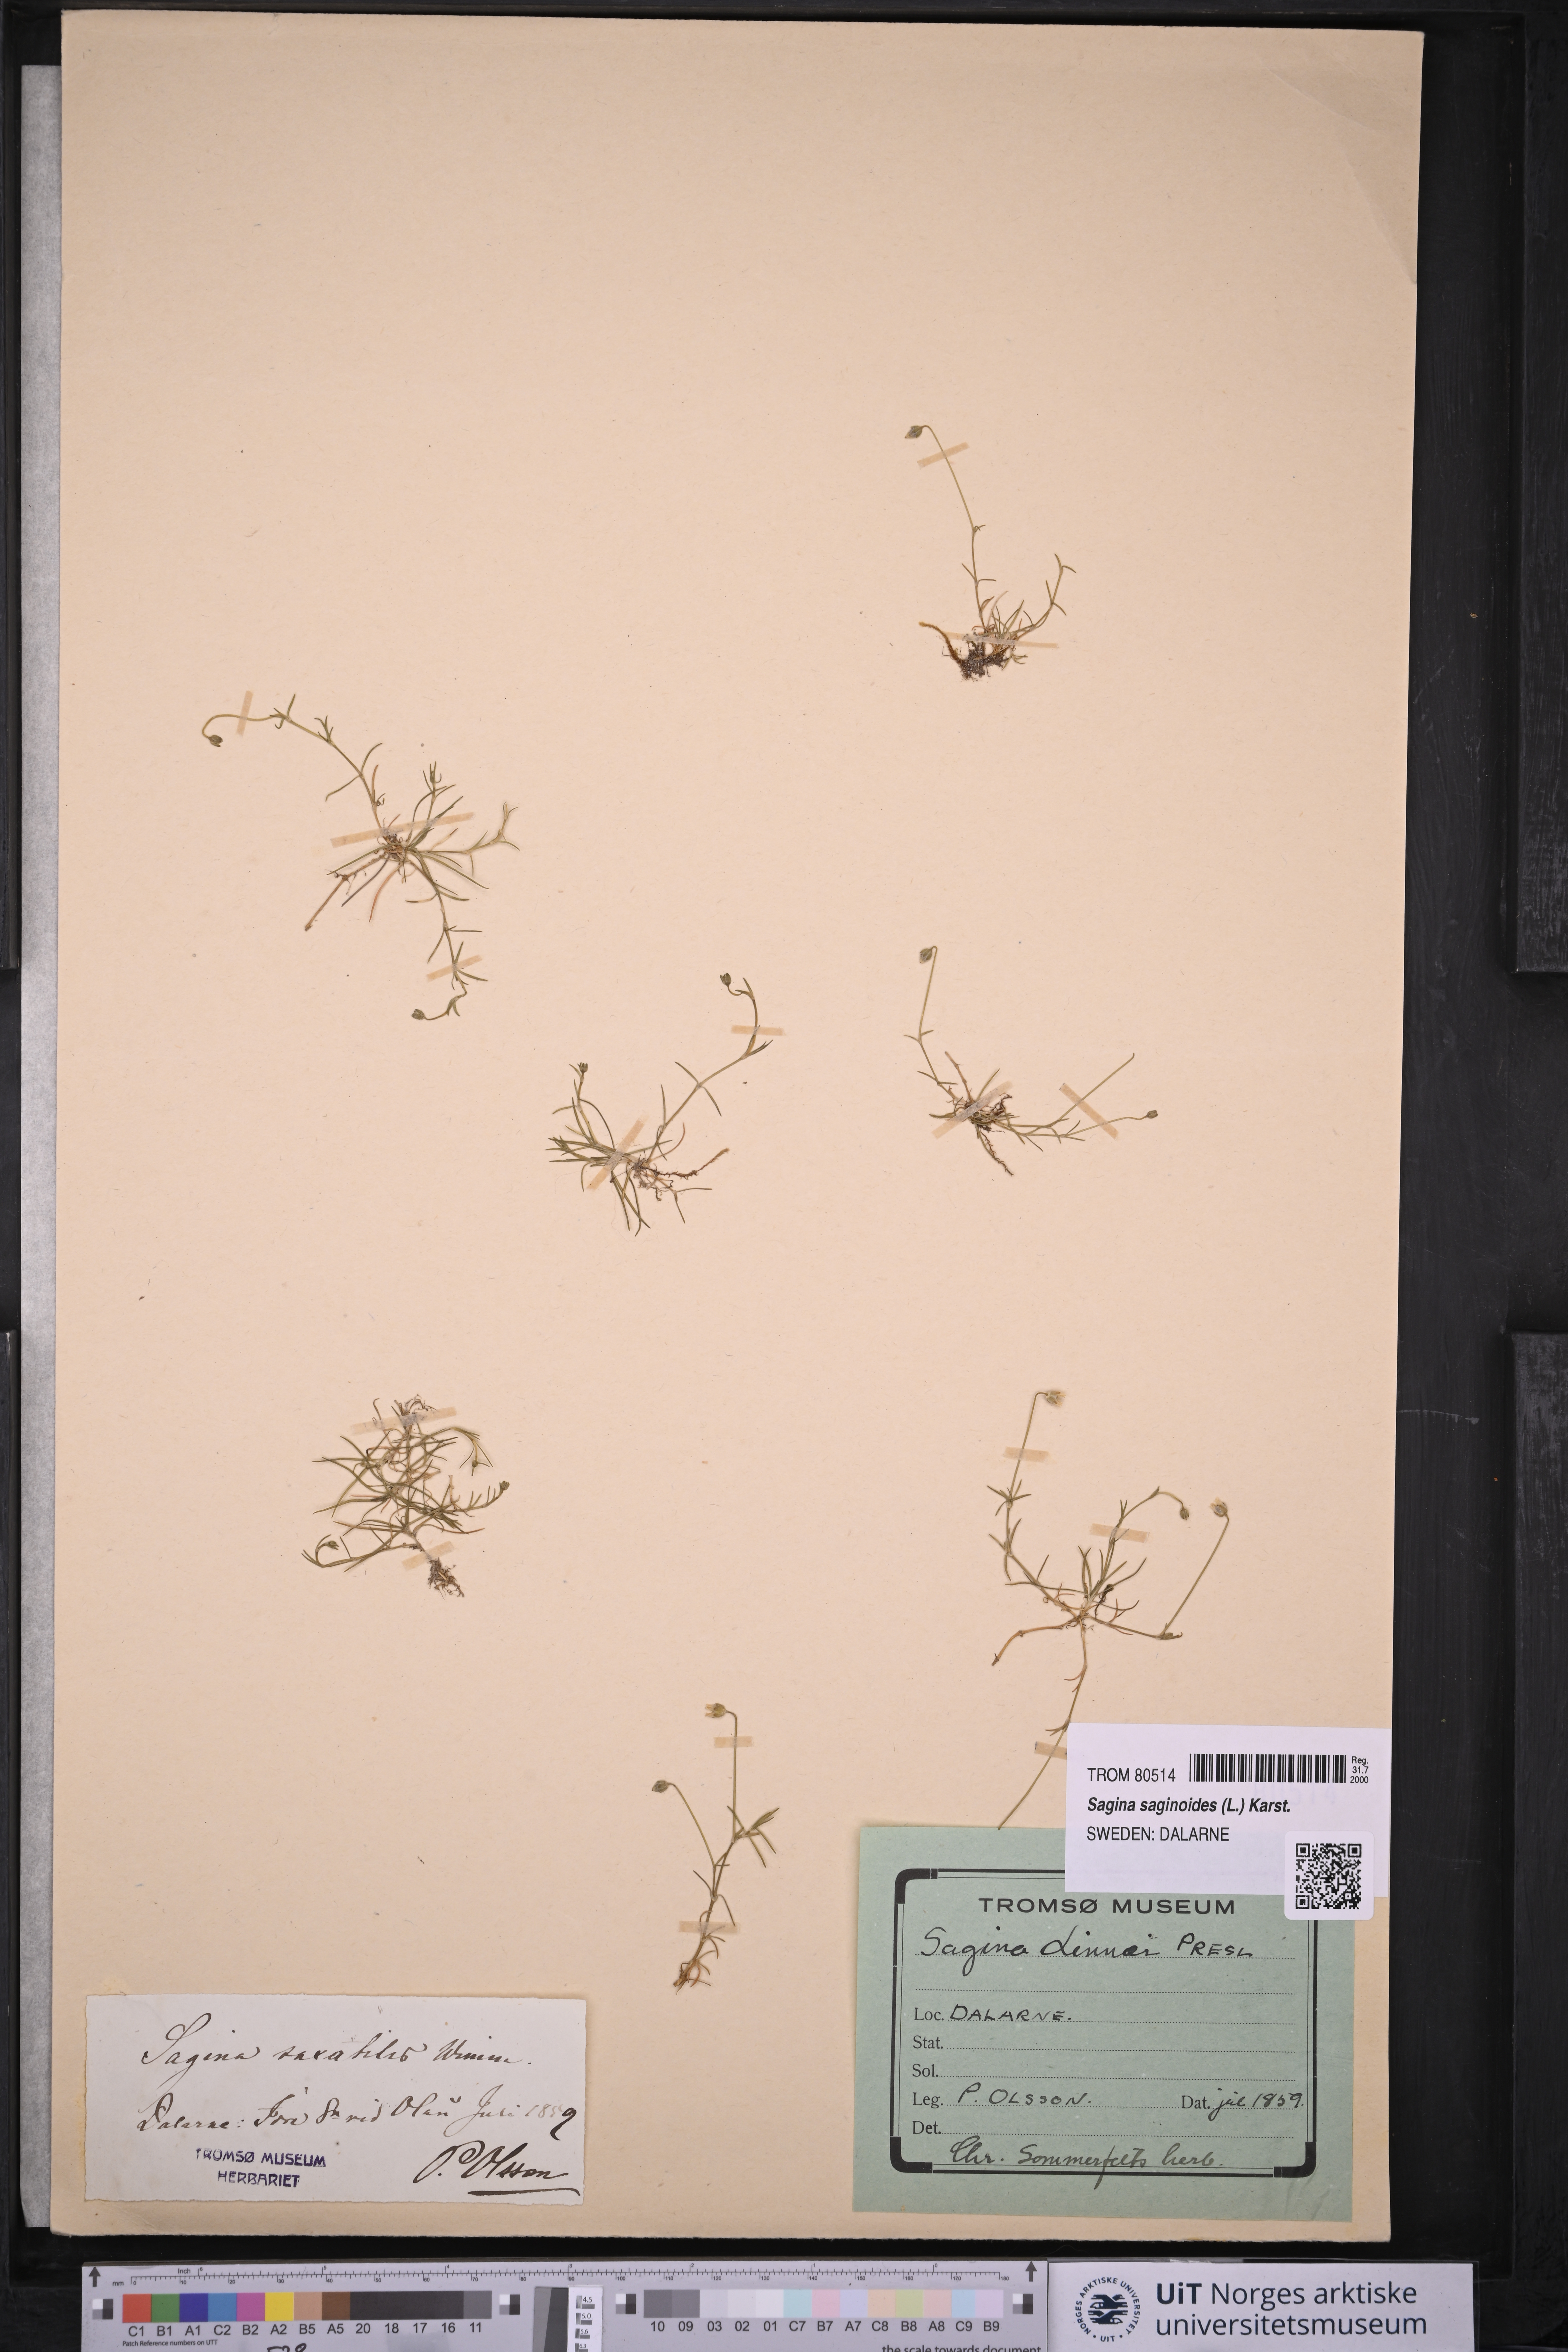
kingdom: Plantae
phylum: Tracheophyta
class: Magnoliopsida
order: Caryophyllales
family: Caryophyllaceae
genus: Sagina
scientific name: Sagina saginoides
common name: Alpine pearlwort
